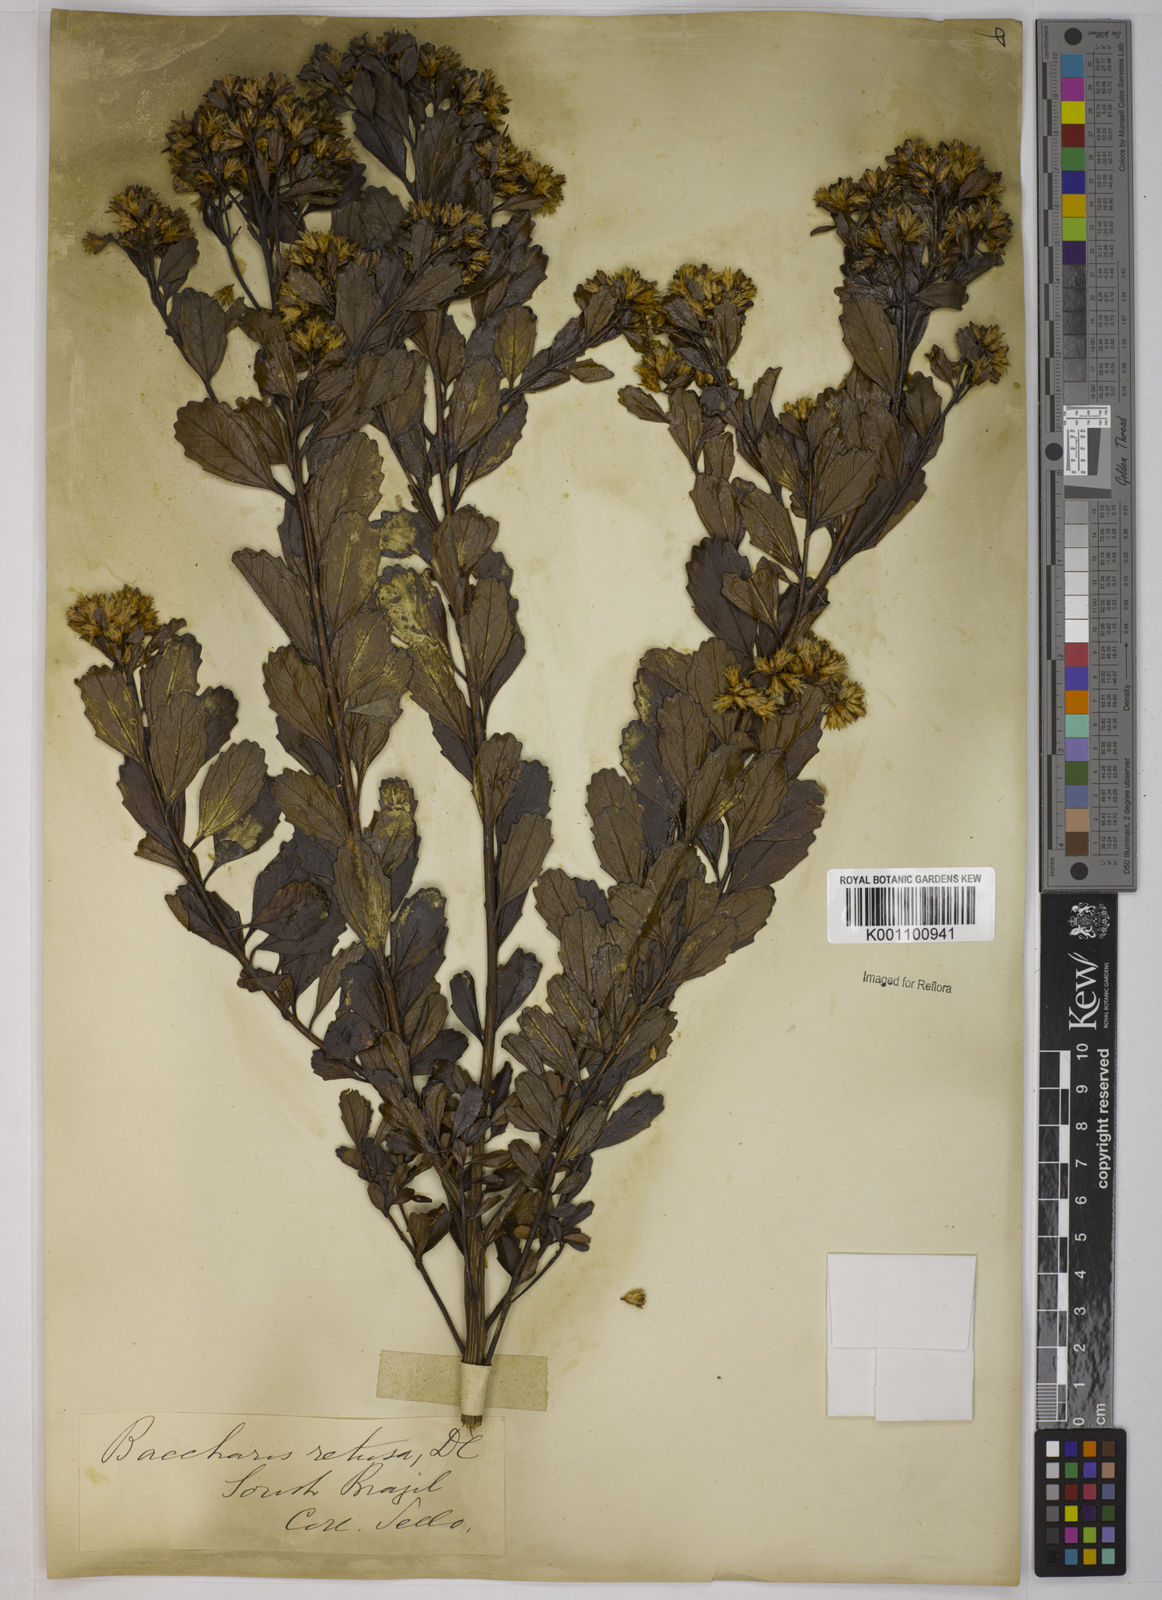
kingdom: Plantae
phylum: Tracheophyta
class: Magnoliopsida
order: Asterales
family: Asteraceae
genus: Baccharis
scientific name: Baccharis retusa
